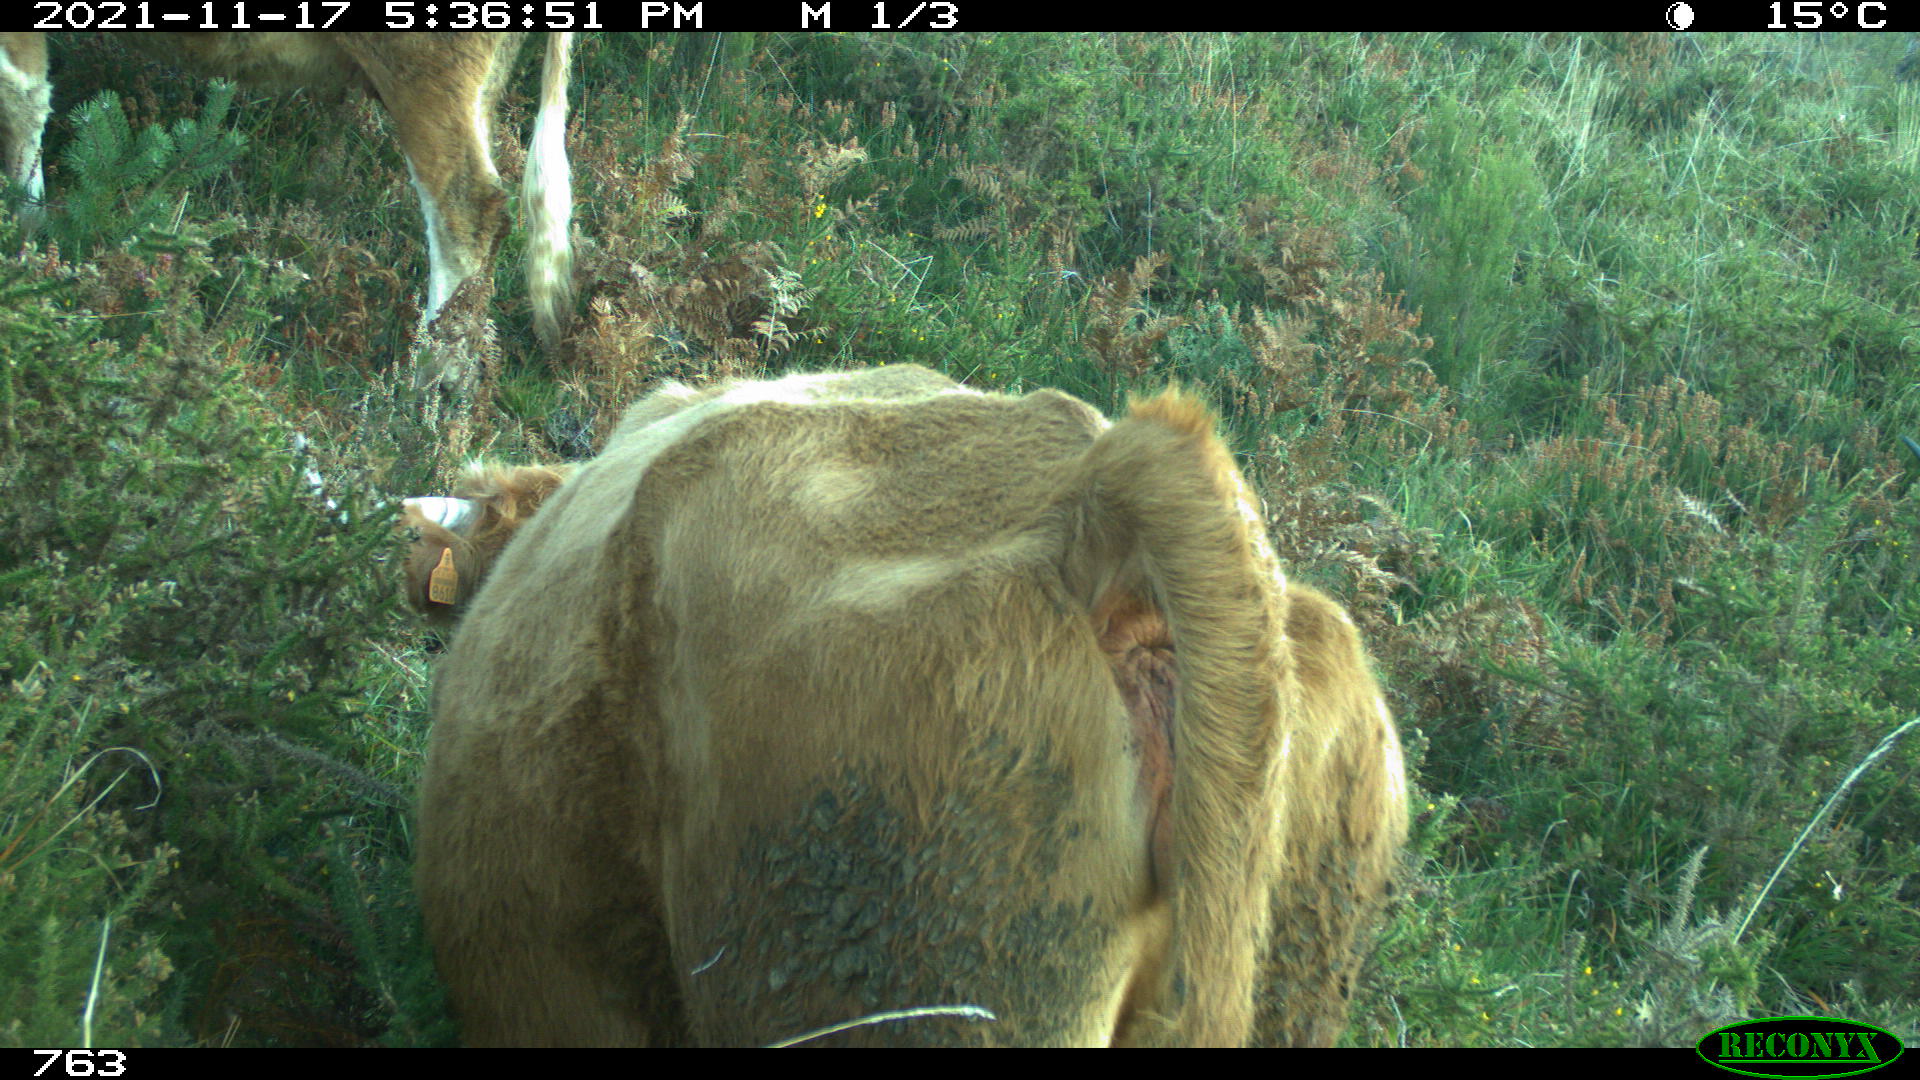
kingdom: Animalia
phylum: Chordata
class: Mammalia
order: Artiodactyla
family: Bovidae
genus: Bos
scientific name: Bos taurus
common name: Domesticated cattle
